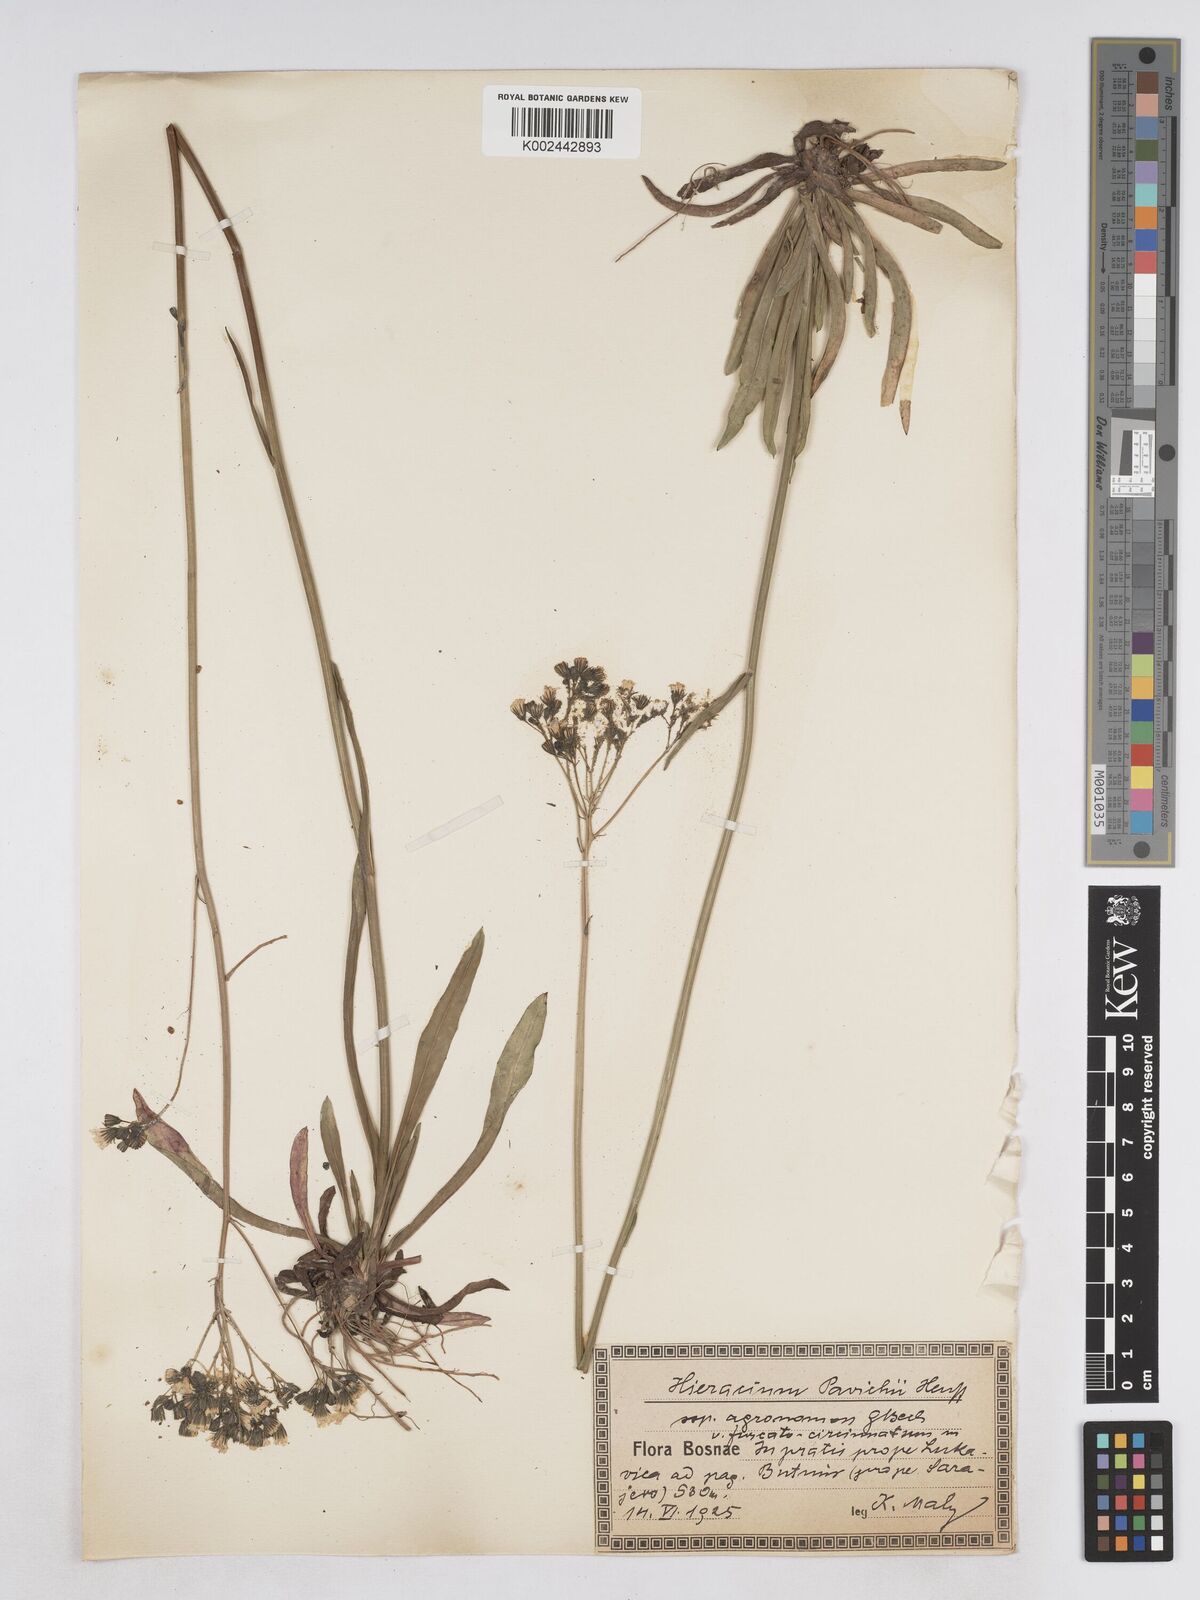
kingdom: Plantae
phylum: Tracheophyta
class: Magnoliopsida
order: Asterales
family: Asteraceae
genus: Pilosella
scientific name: Pilosella pavichii
